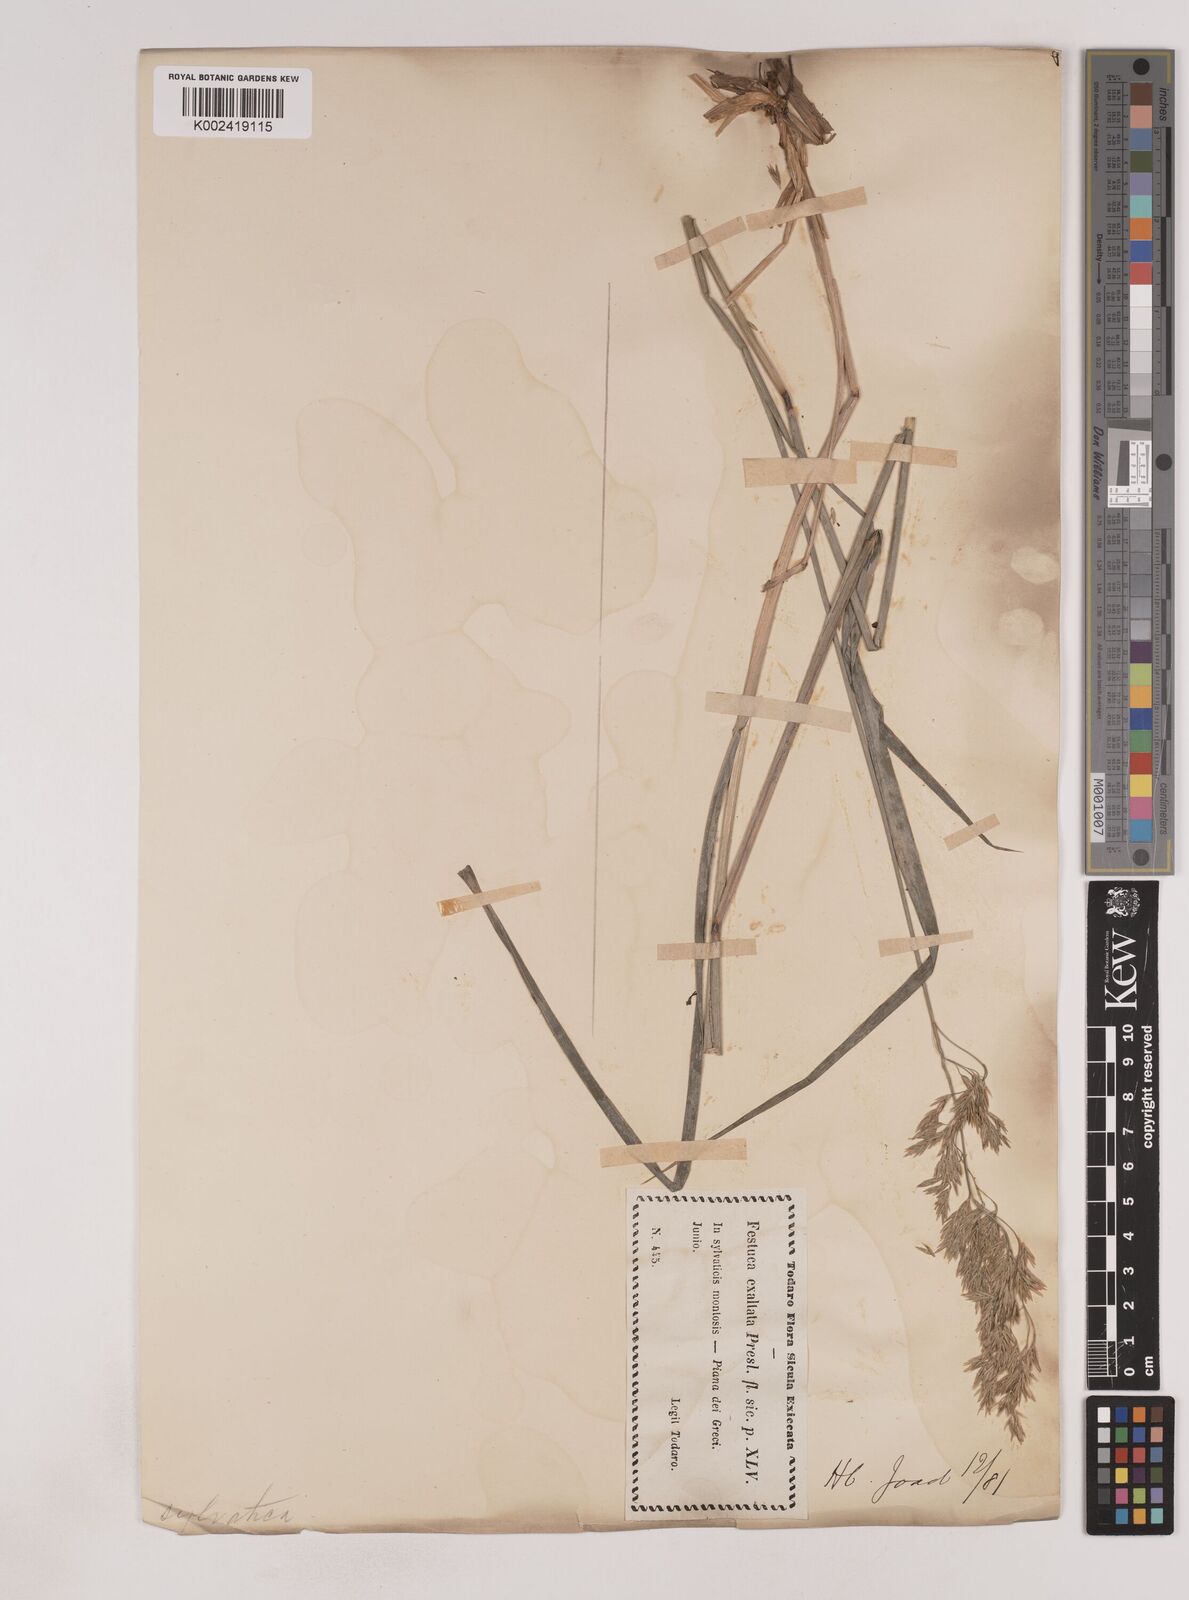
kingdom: Plantae
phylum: Tracheophyta
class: Liliopsida
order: Poales
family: Poaceae
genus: Festuca
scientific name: Festuca drymeja
